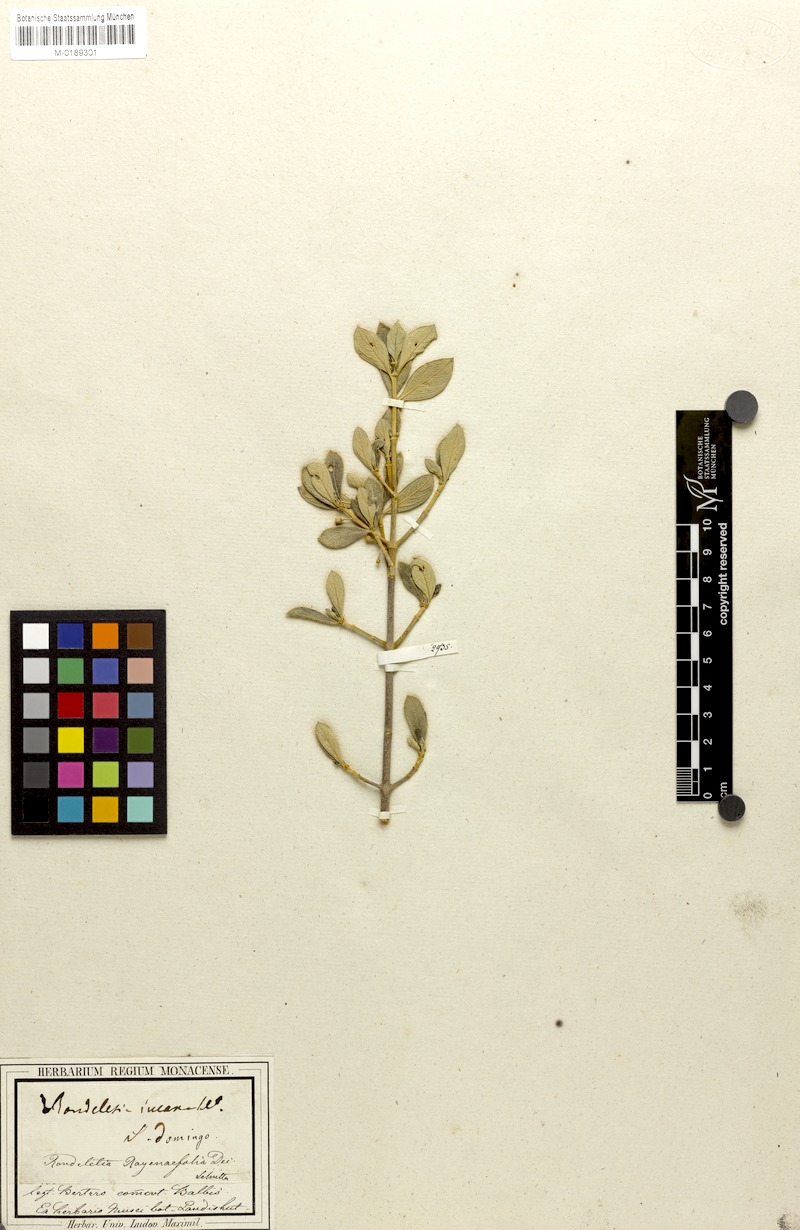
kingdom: Plantae
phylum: Tracheophyta
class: Magnoliopsida
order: Gentianales
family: Rubiaceae
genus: Rondeletia
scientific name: Rondeletia roynaefolia
